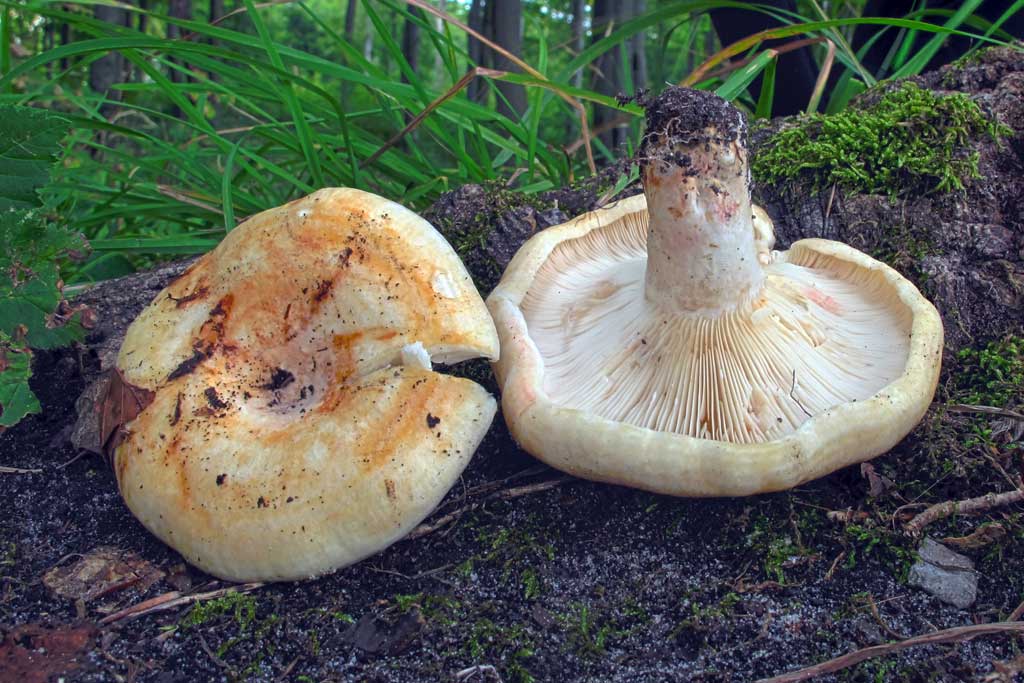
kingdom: Fungi
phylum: Basidiomycota
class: Agaricomycetes
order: Russulales
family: Russulaceae
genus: Lactarius
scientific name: Lactarius evosmus
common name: bæltet mælkehat
